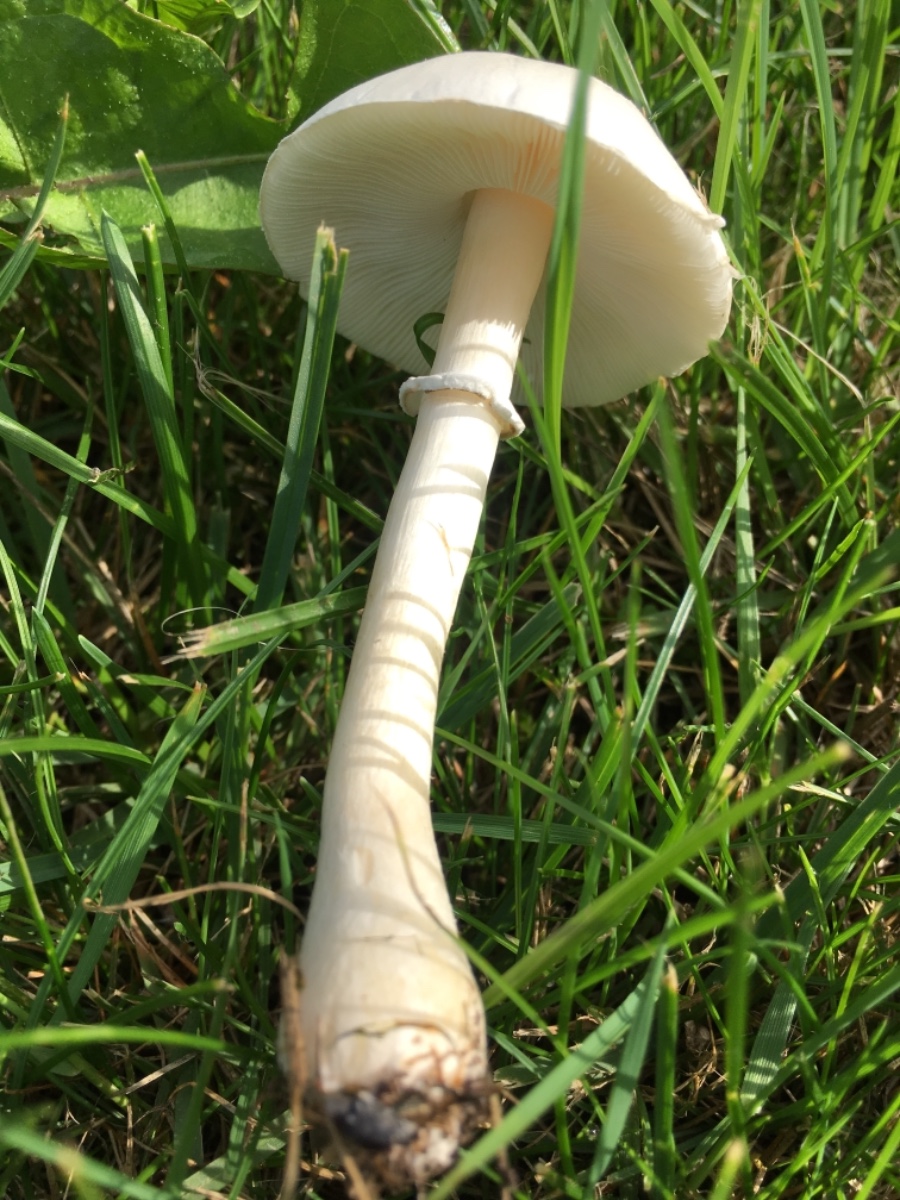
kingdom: Fungi
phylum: Basidiomycota
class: Agaricomycetes
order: Agaricales
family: Agaricaceae
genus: Leucoagaricus
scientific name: Leucoagaricus leucothites
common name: rosabladet silkehat
